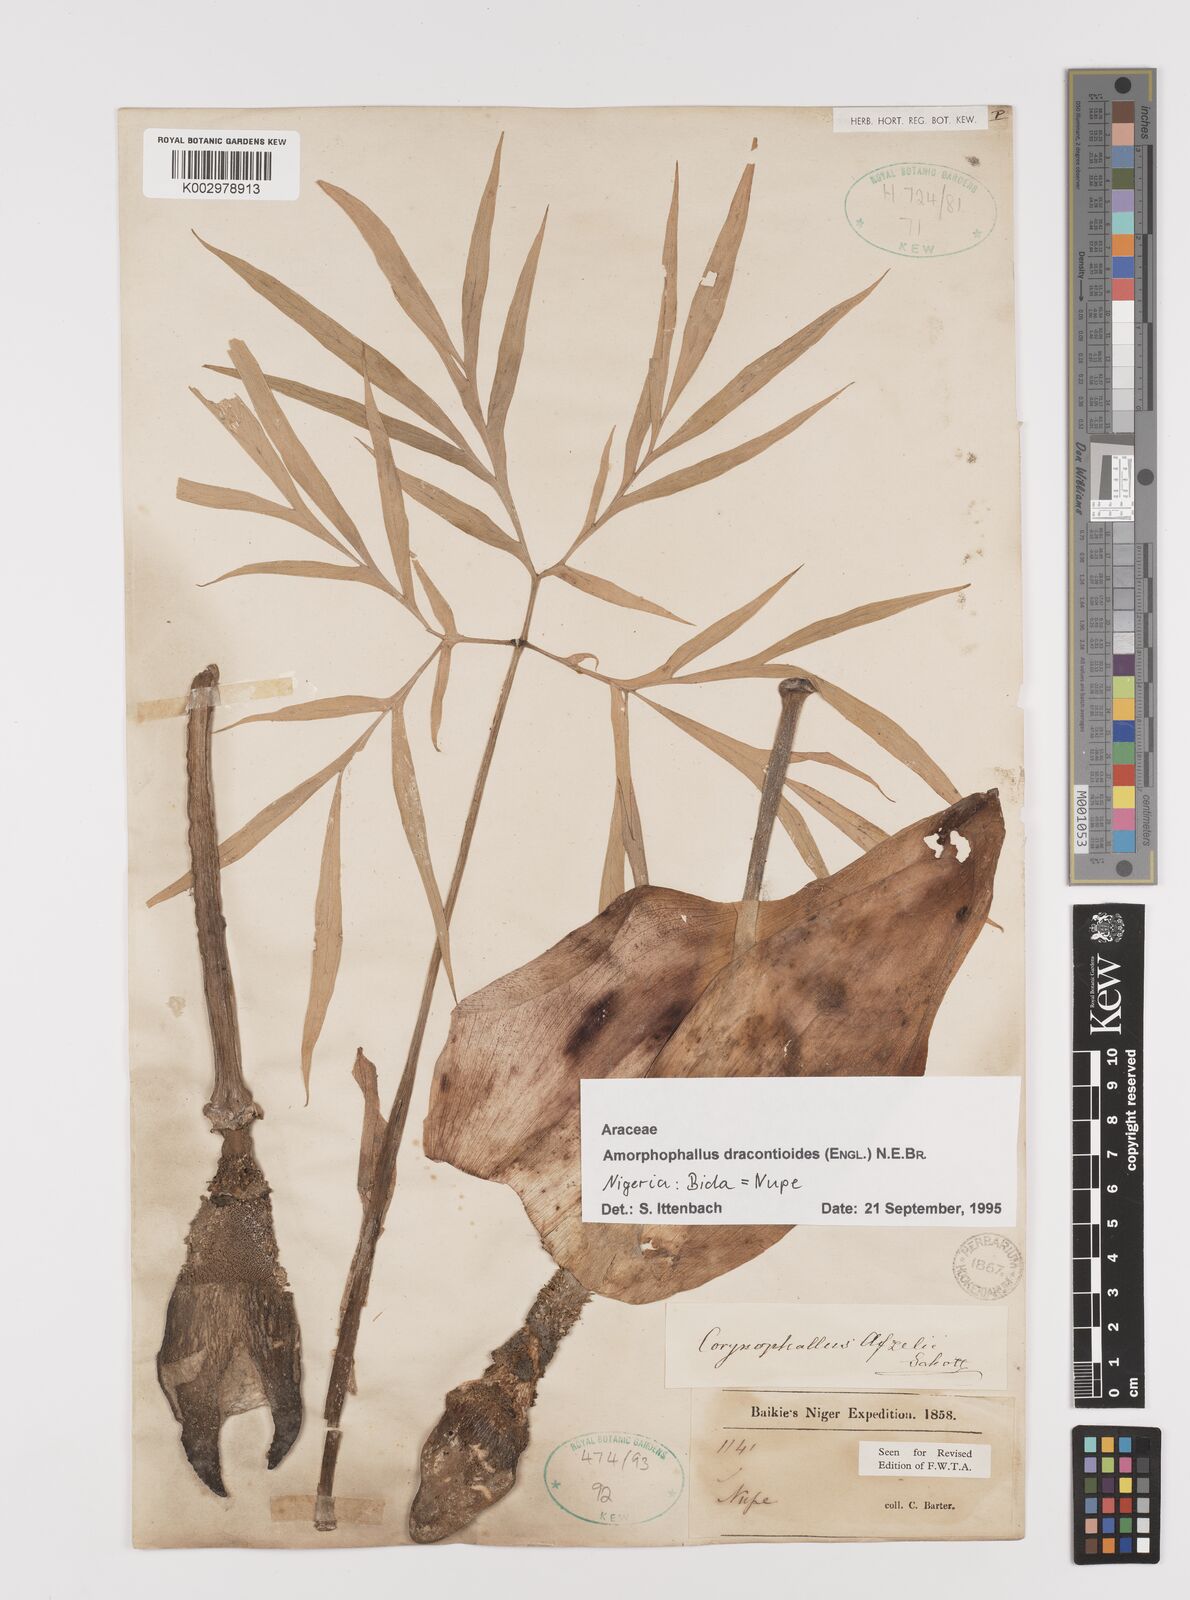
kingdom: Plantae
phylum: Tracheophyta
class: Liliopsida
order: Alismatales
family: Araceae
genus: Amorphophallus
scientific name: Amorphophallus dracontioides
